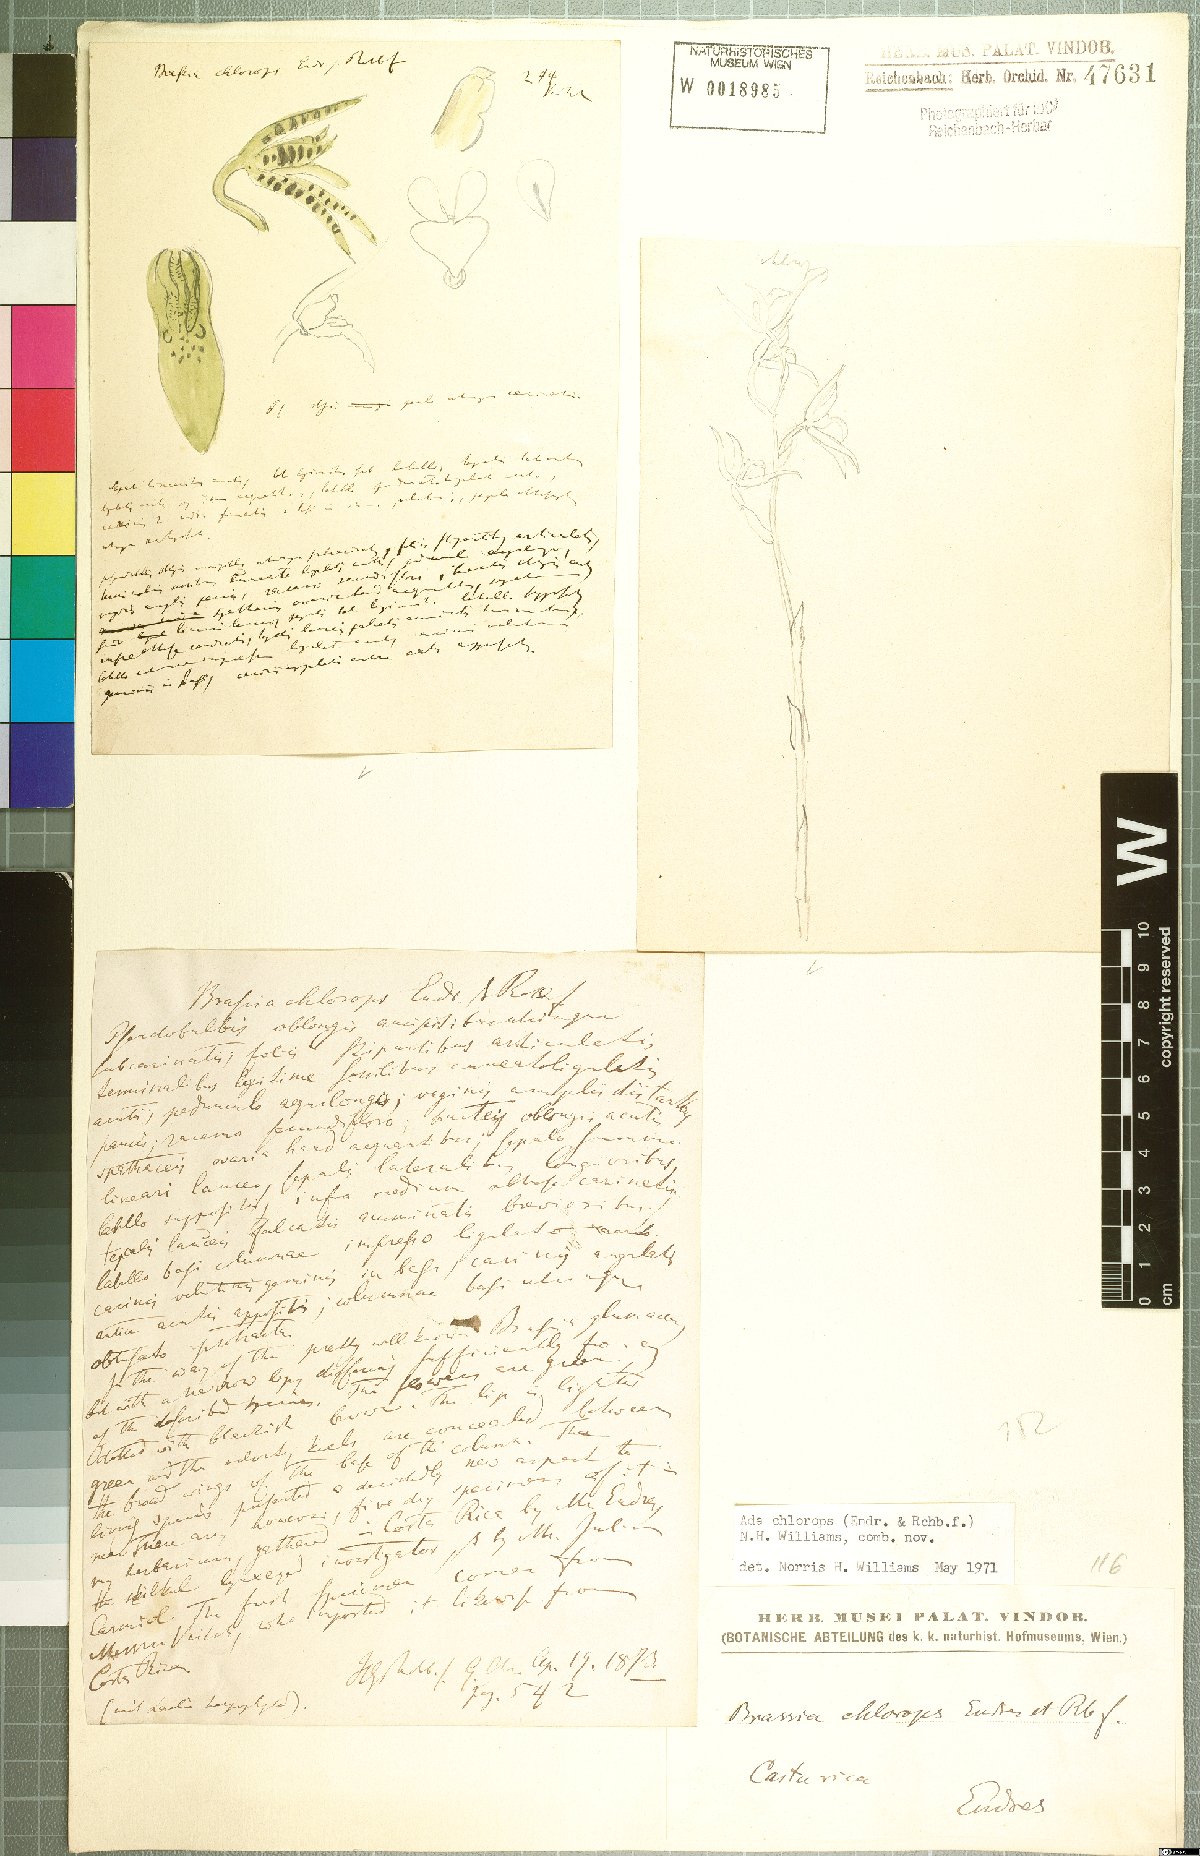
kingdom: Plantae
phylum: Tracheophyta
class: Liliopsida
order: Asparagales
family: Orchidaceae
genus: Brassia
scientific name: Brassia chlorops
